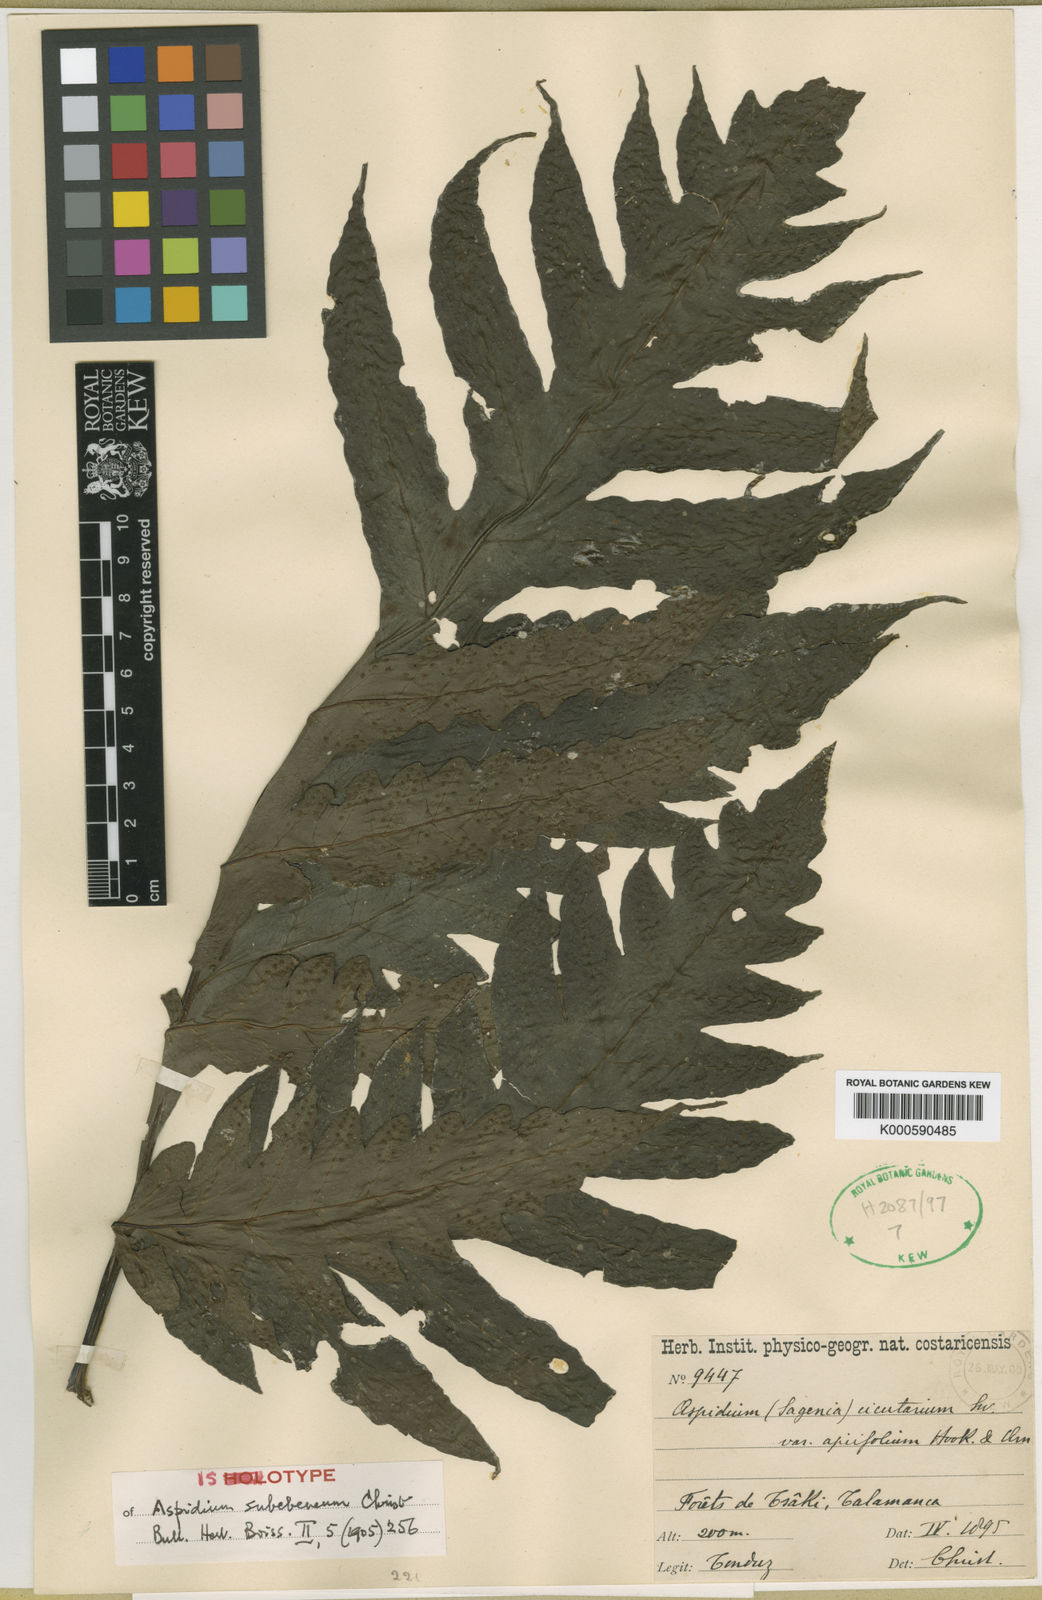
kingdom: Plantae
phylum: Tracheophyta
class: Polypodiopsida
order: Polypodiales
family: Tectariaceae
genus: Tectaria
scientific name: Tectaria subebenea
